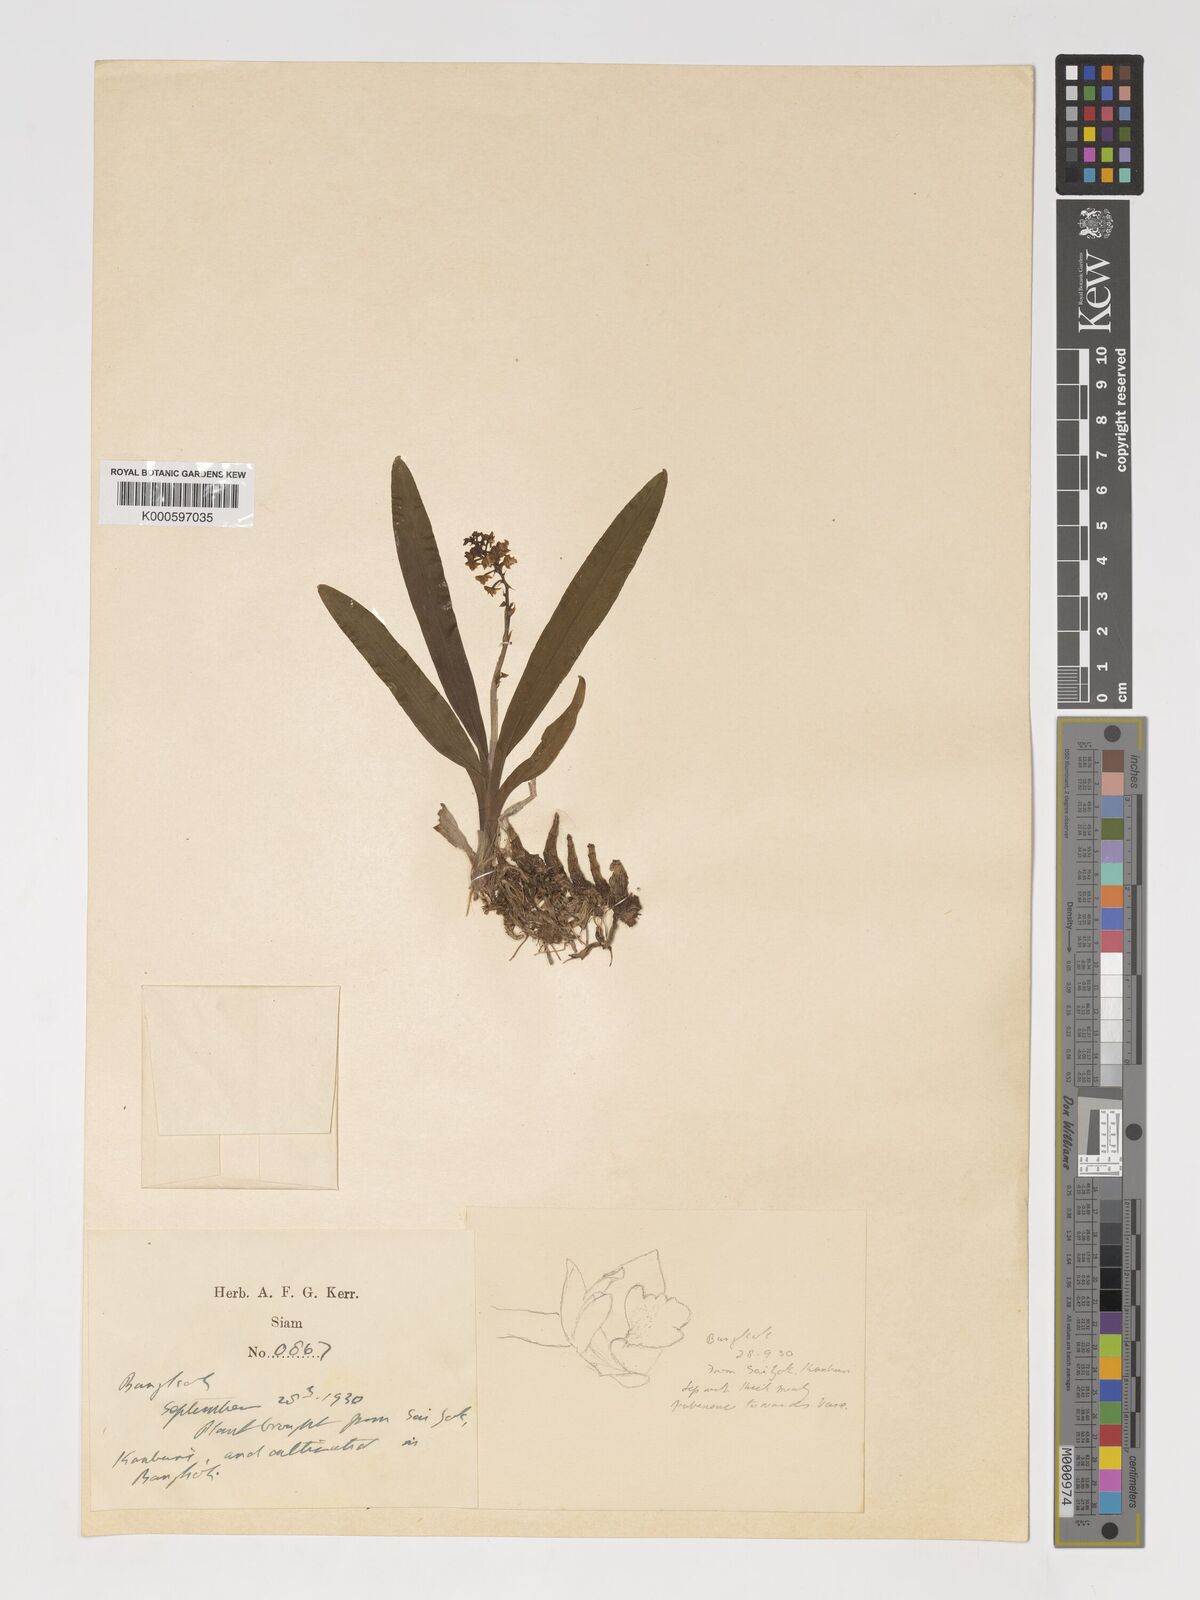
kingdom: Plantae
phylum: Tracheophyta
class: Liliopsida
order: Asparagales
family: Orchidaceae
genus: Polystachya
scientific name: Polystachya concreta
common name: Greater yellowspike orchid
